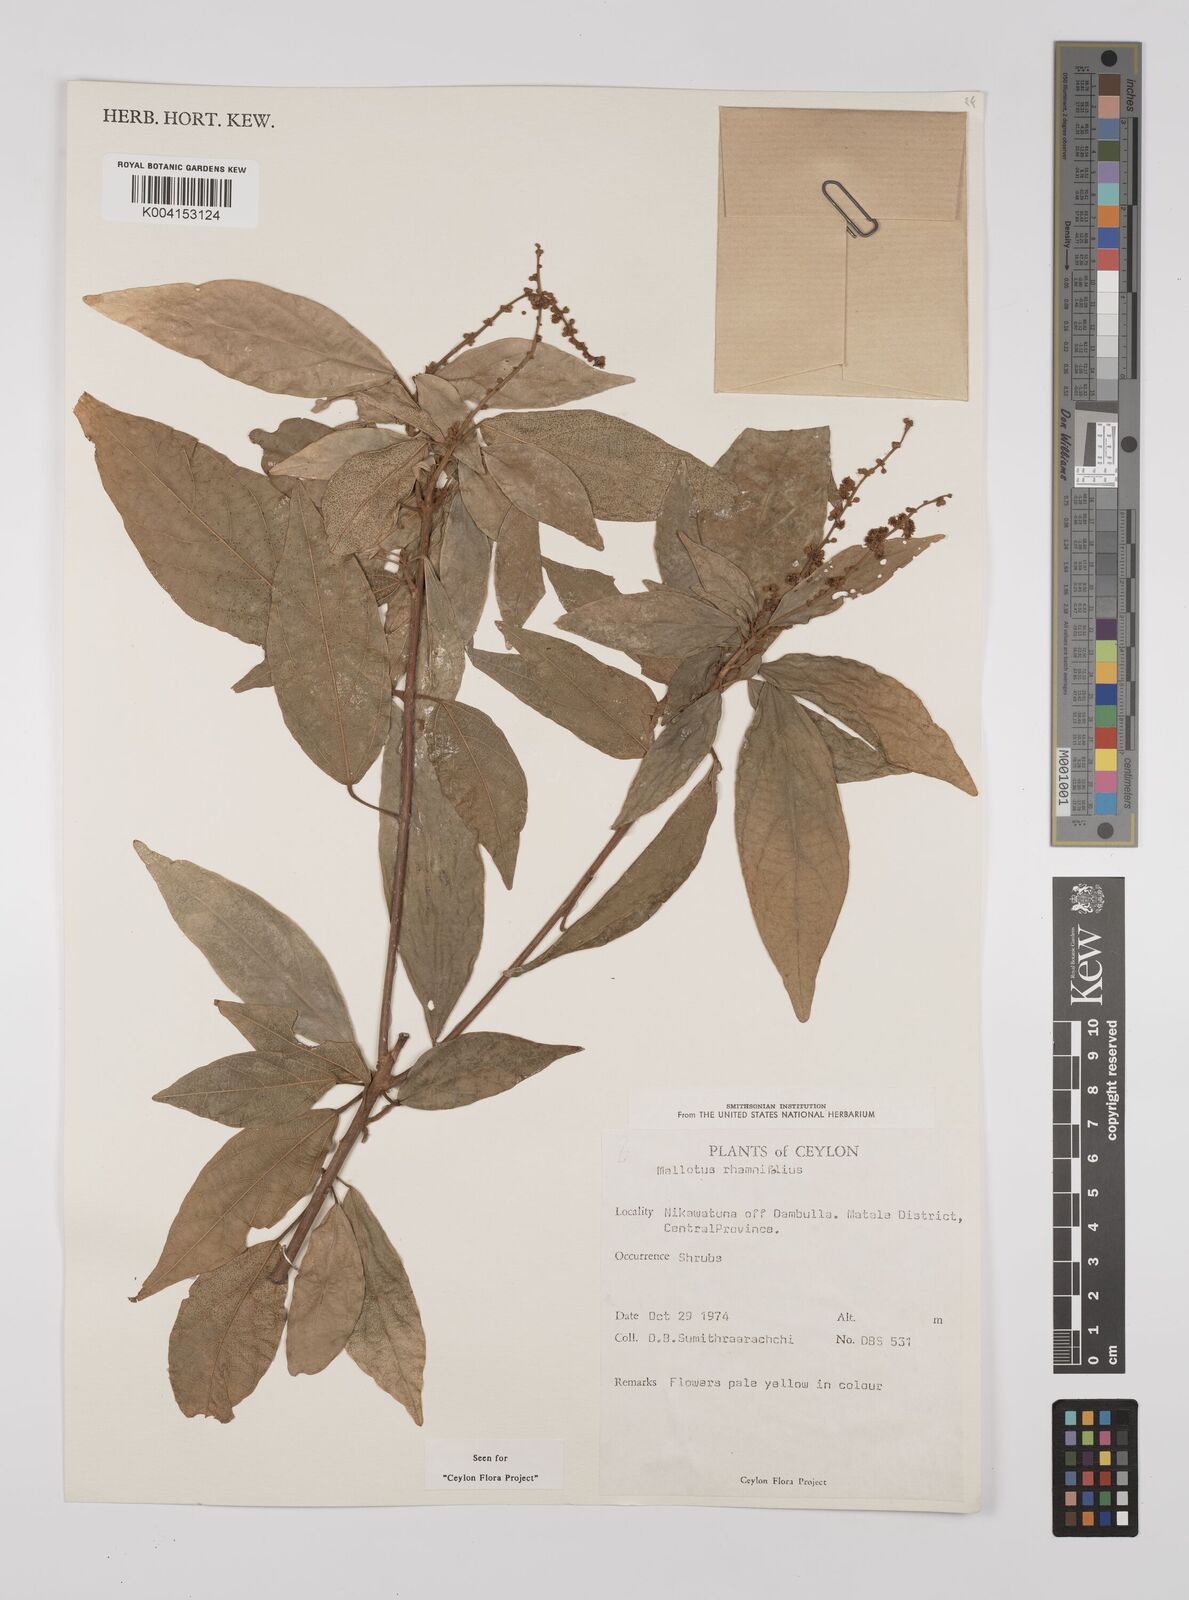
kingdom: Plantae
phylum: Tracheophyta
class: Magnoliopsida
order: Malpighiales
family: Euphorbiaceae
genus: Mallotus
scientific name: Mallotus rhamnifolius
